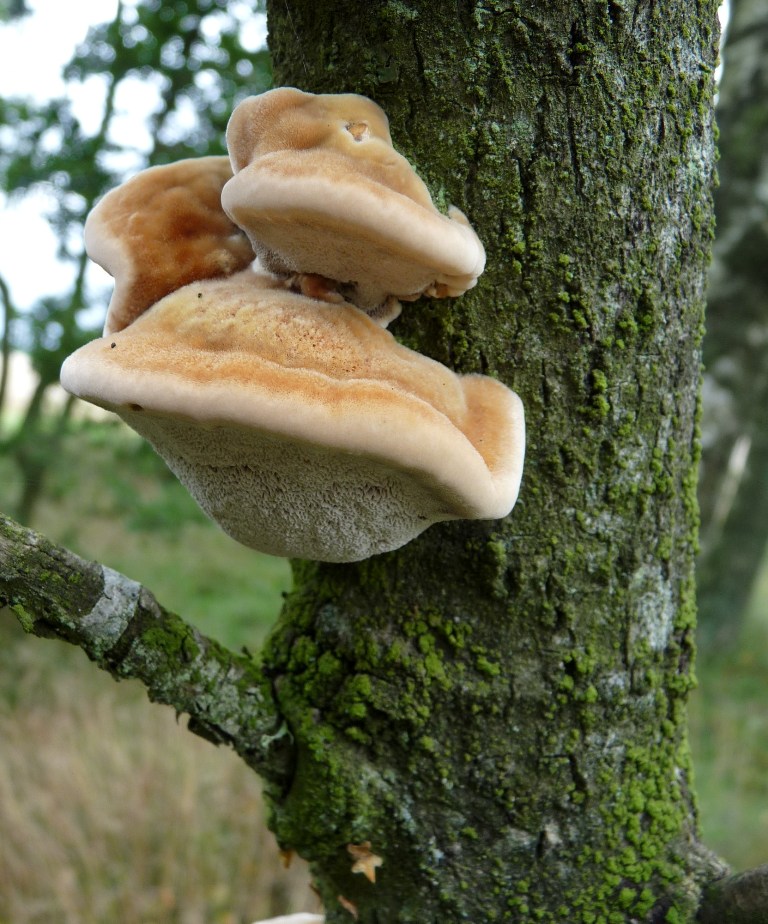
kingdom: Fungi
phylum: Basidiomycota
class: Agaricomycetes
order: Hymenochaetales
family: Hymenochaetaceae
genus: Inocutis
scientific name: Inocutis rheades
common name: ræve-spejlporesvamp
